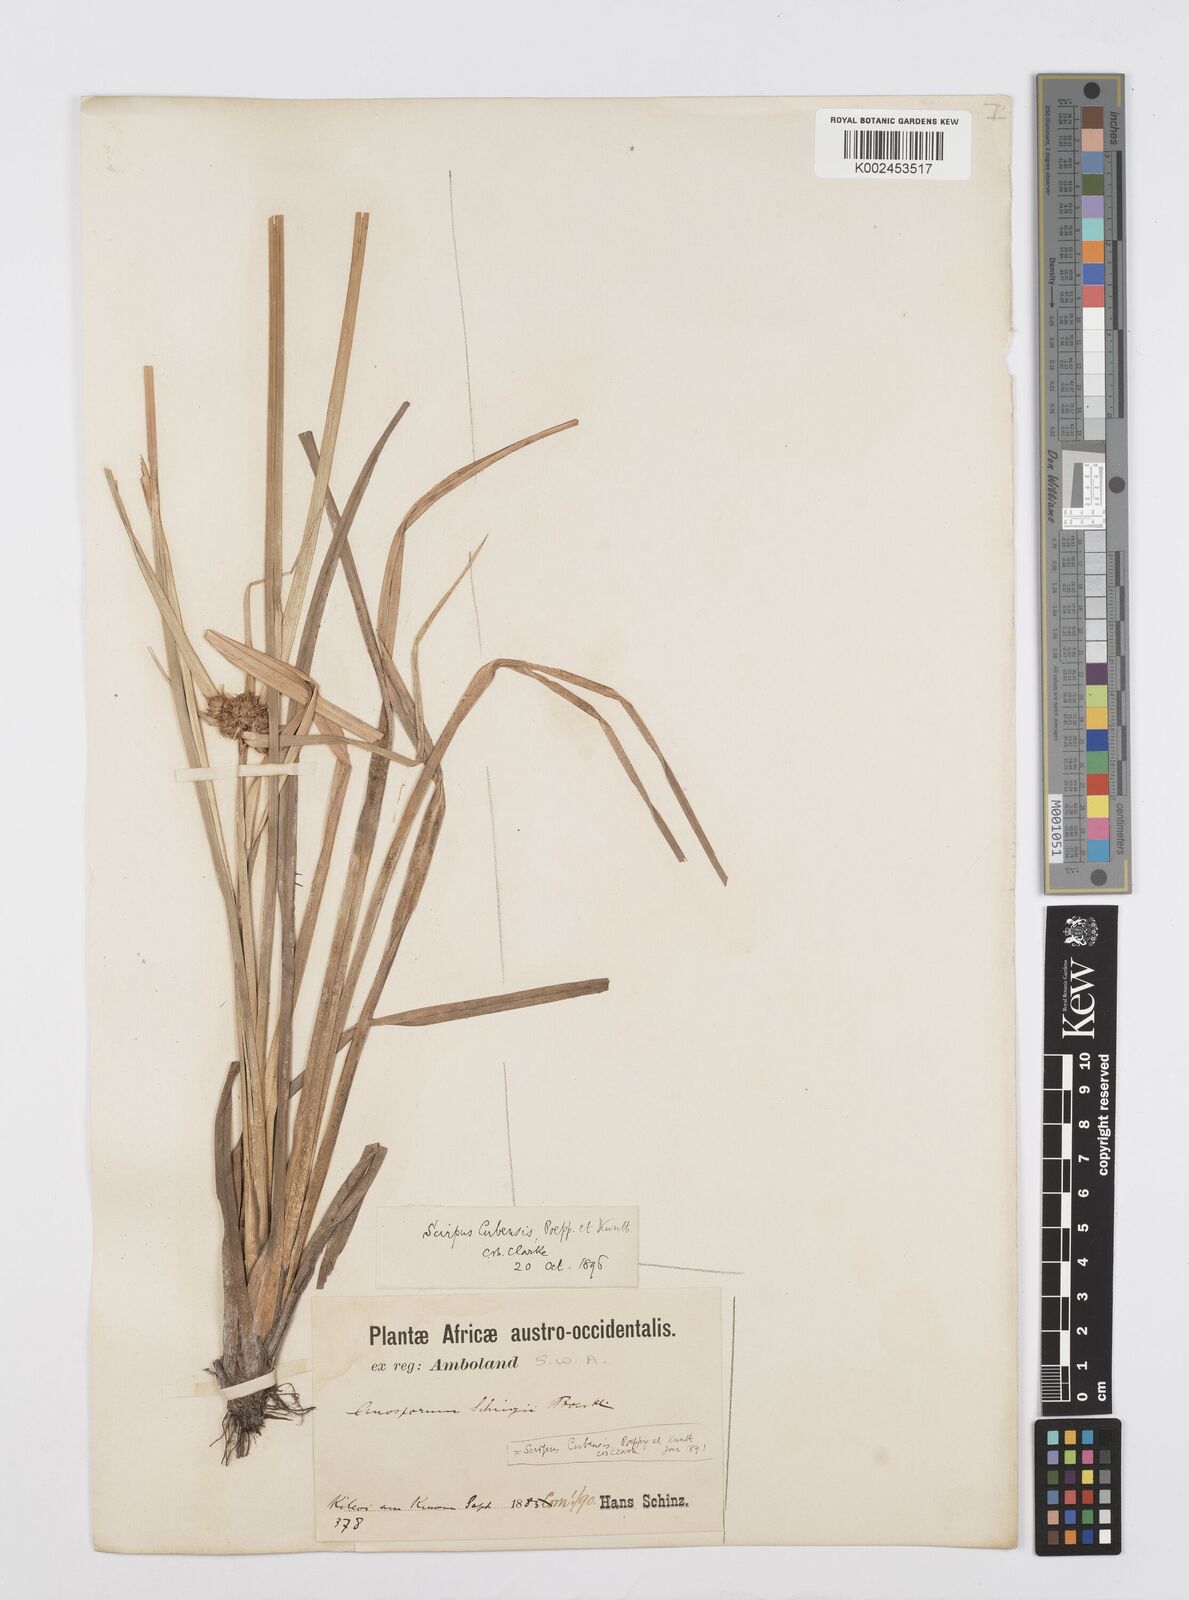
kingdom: Plantae
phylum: Tracheophyta
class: Liliopsida
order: Poales
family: Cyperaceae
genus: Cyperus
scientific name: Cyperus elegans
